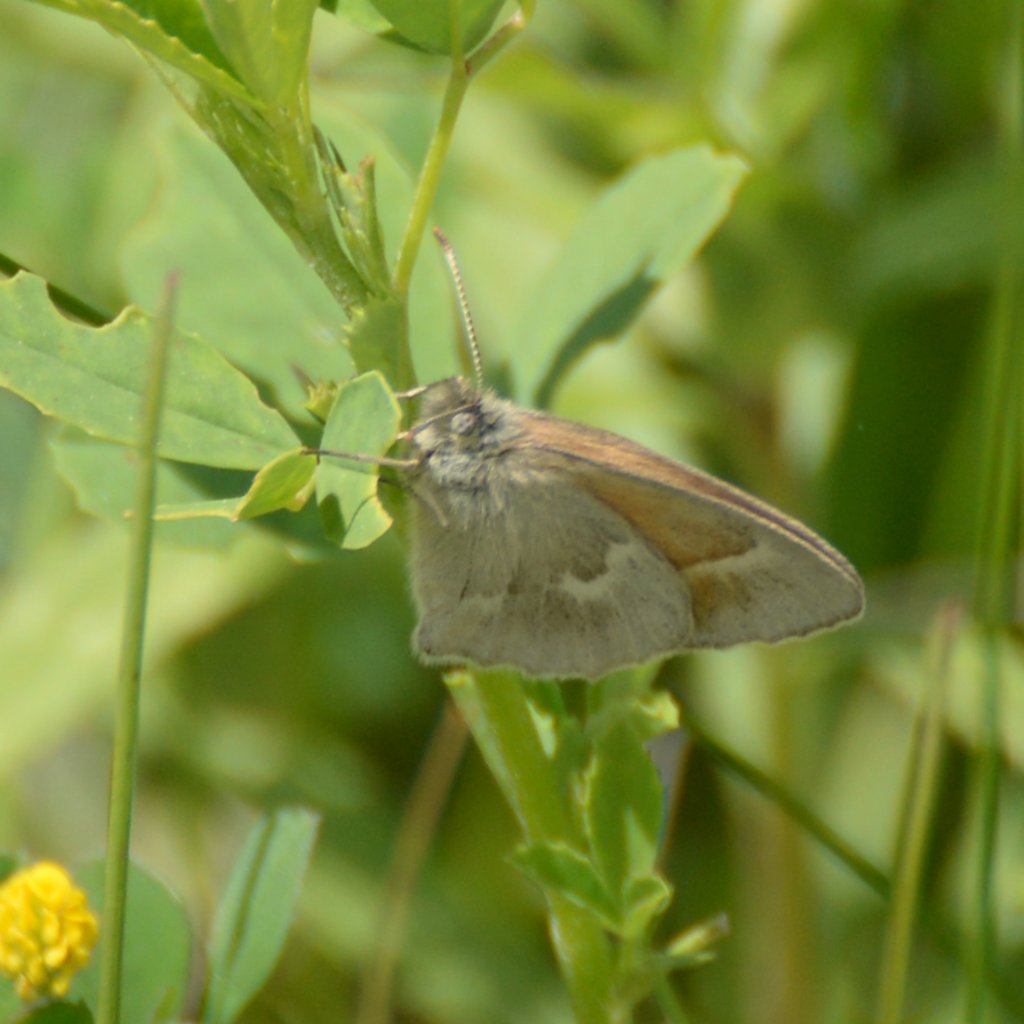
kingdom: Animalia
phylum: Arthropoda
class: Insecta
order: Lepidoptera
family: Nymphalidae
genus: Coenonympha
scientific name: Coenonympha tullia
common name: Large Heath
